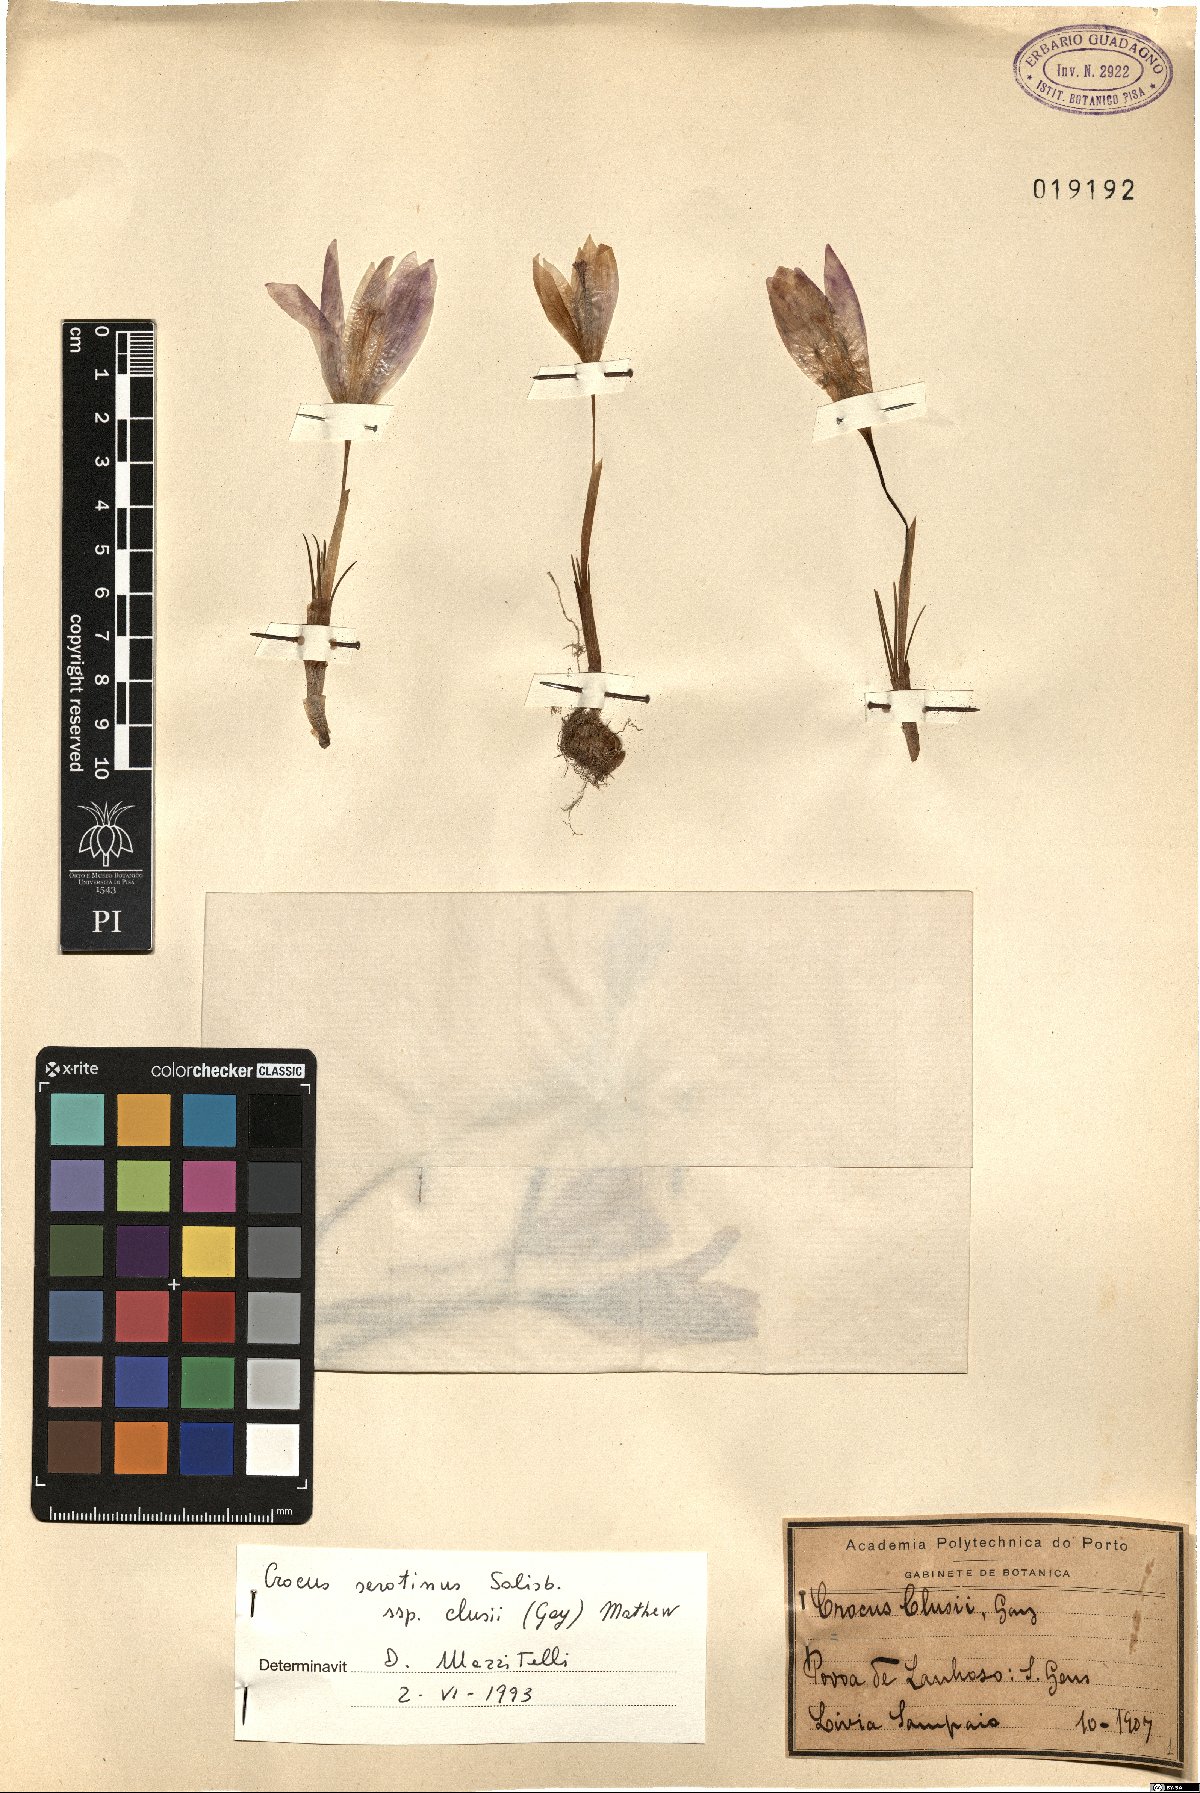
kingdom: Plantae
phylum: Tracheophyta
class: Liliopsida
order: Asparagales
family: Iridaceae
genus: Crocus
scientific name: Crocus clusii
